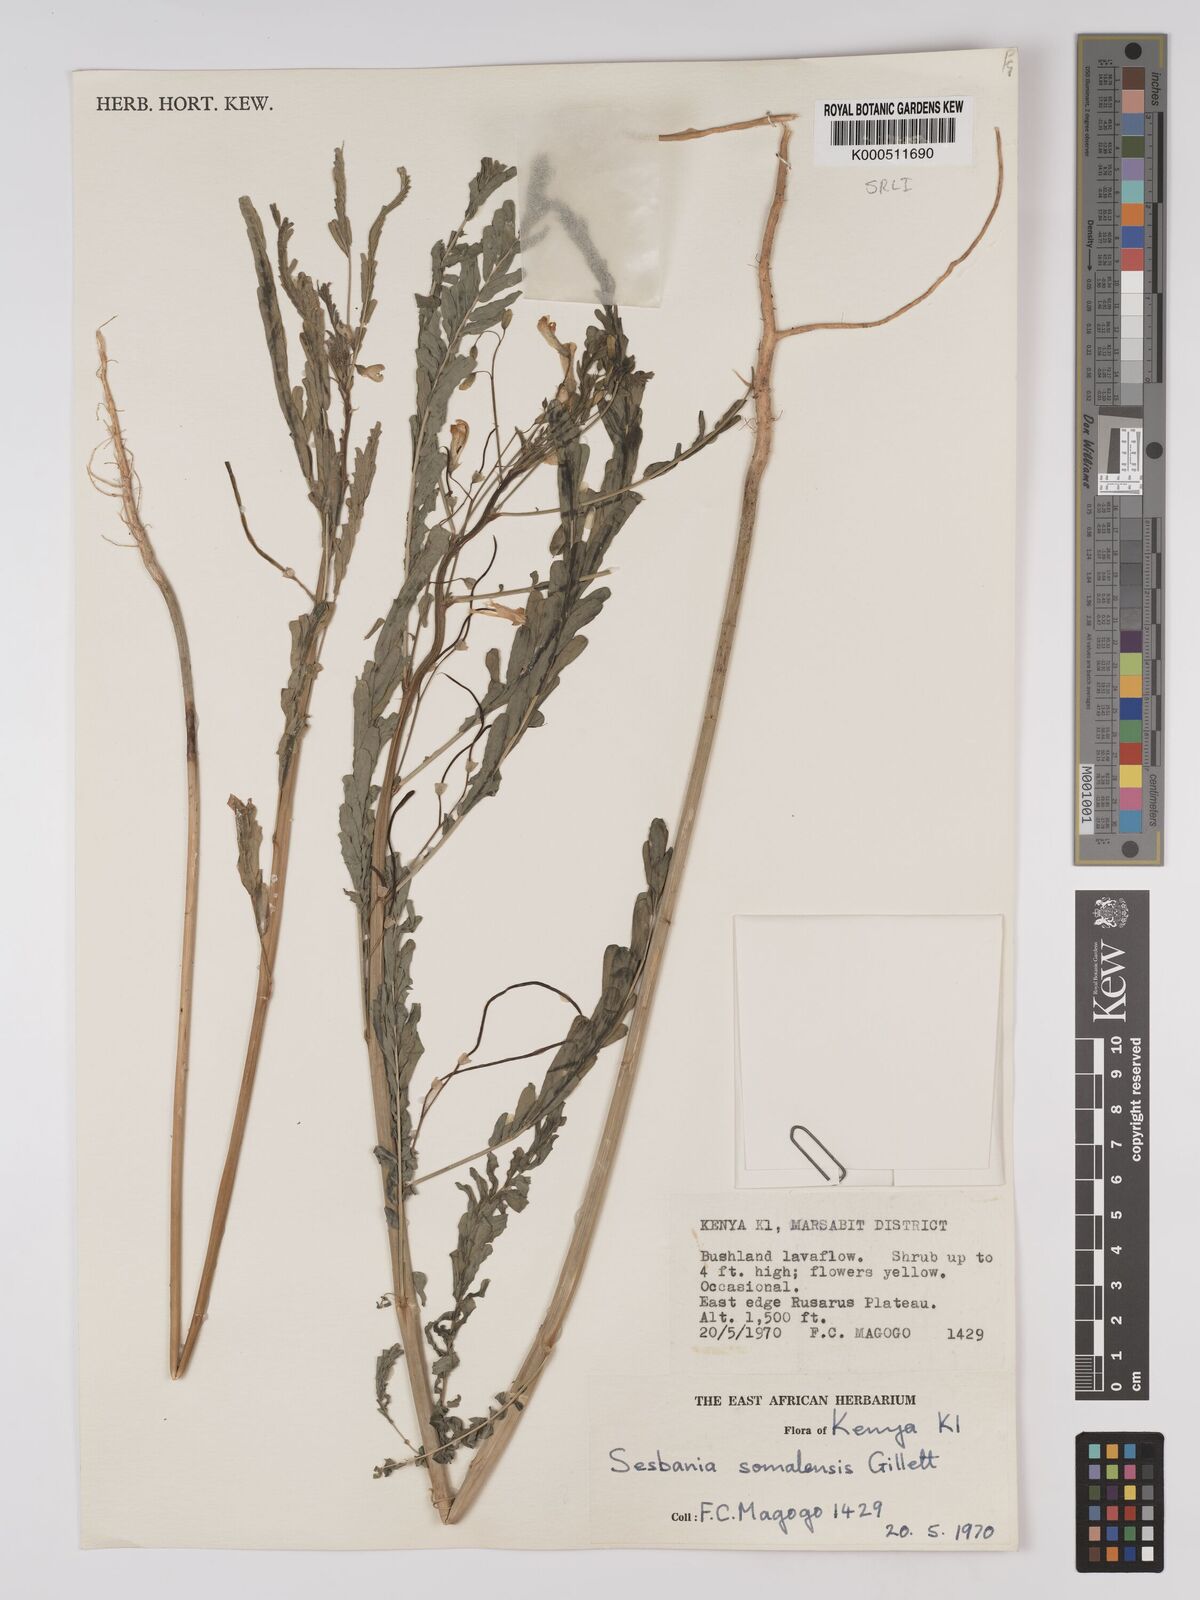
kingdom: Plantae
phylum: Tracheophyta
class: Magnoliopsida
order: Fabales
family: Fabaceae
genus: Sesbania
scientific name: Sesbania somalensis
